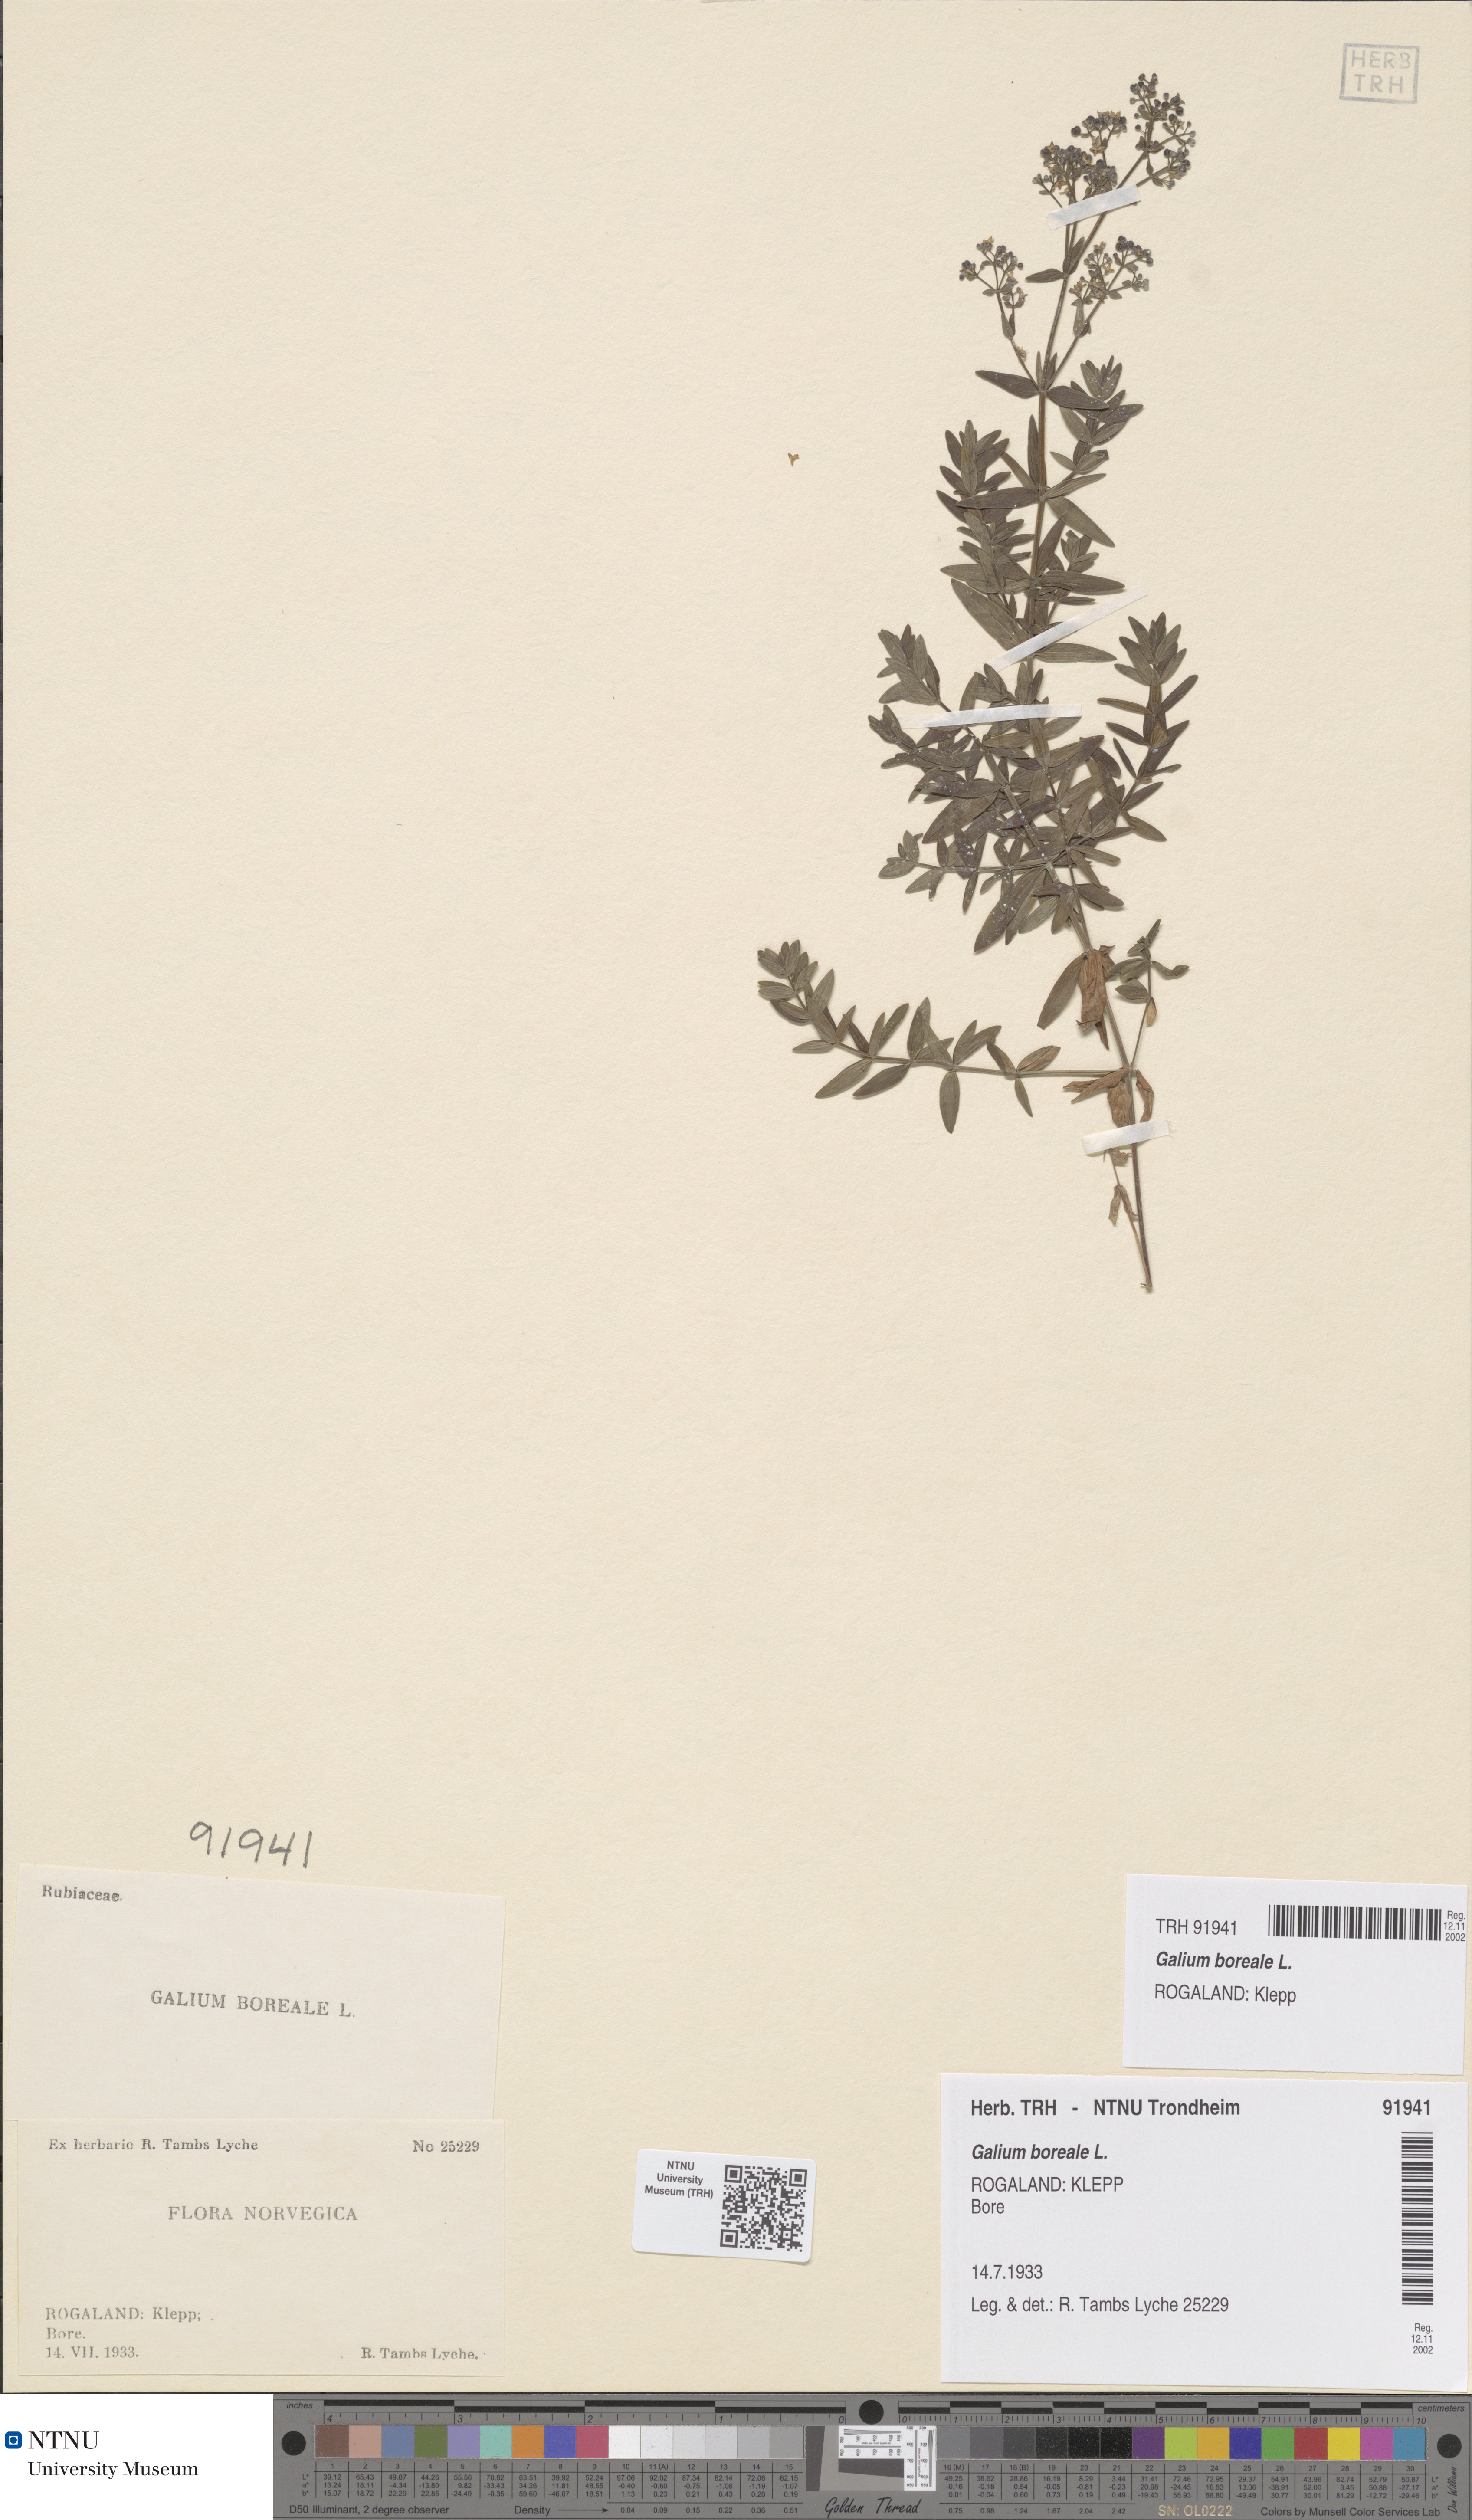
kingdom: Plantae
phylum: Tracheophyta
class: Magnoliopsida
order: Gentianales
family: Rubiaceae
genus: Galium
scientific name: Galium boreale
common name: Northern bedstraw
